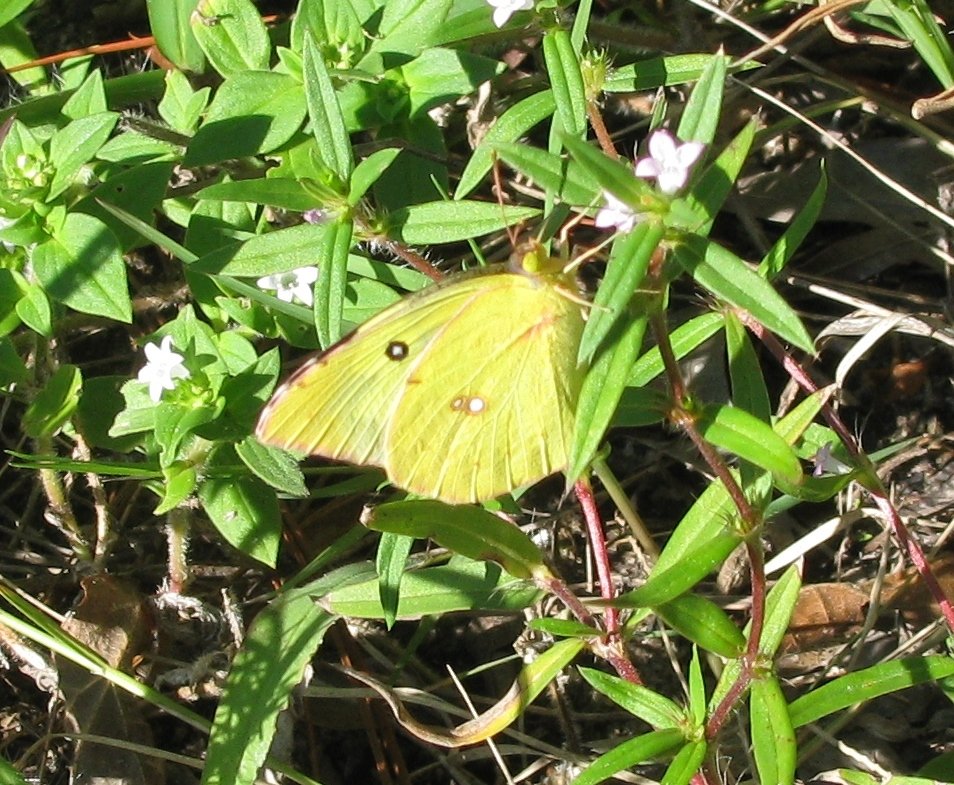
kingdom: Animalia
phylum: Arthropoda
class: Insecta
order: Lepidoptera
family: Pieridae
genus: Zerene
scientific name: Zerene cesonia
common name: Southern Dogface
